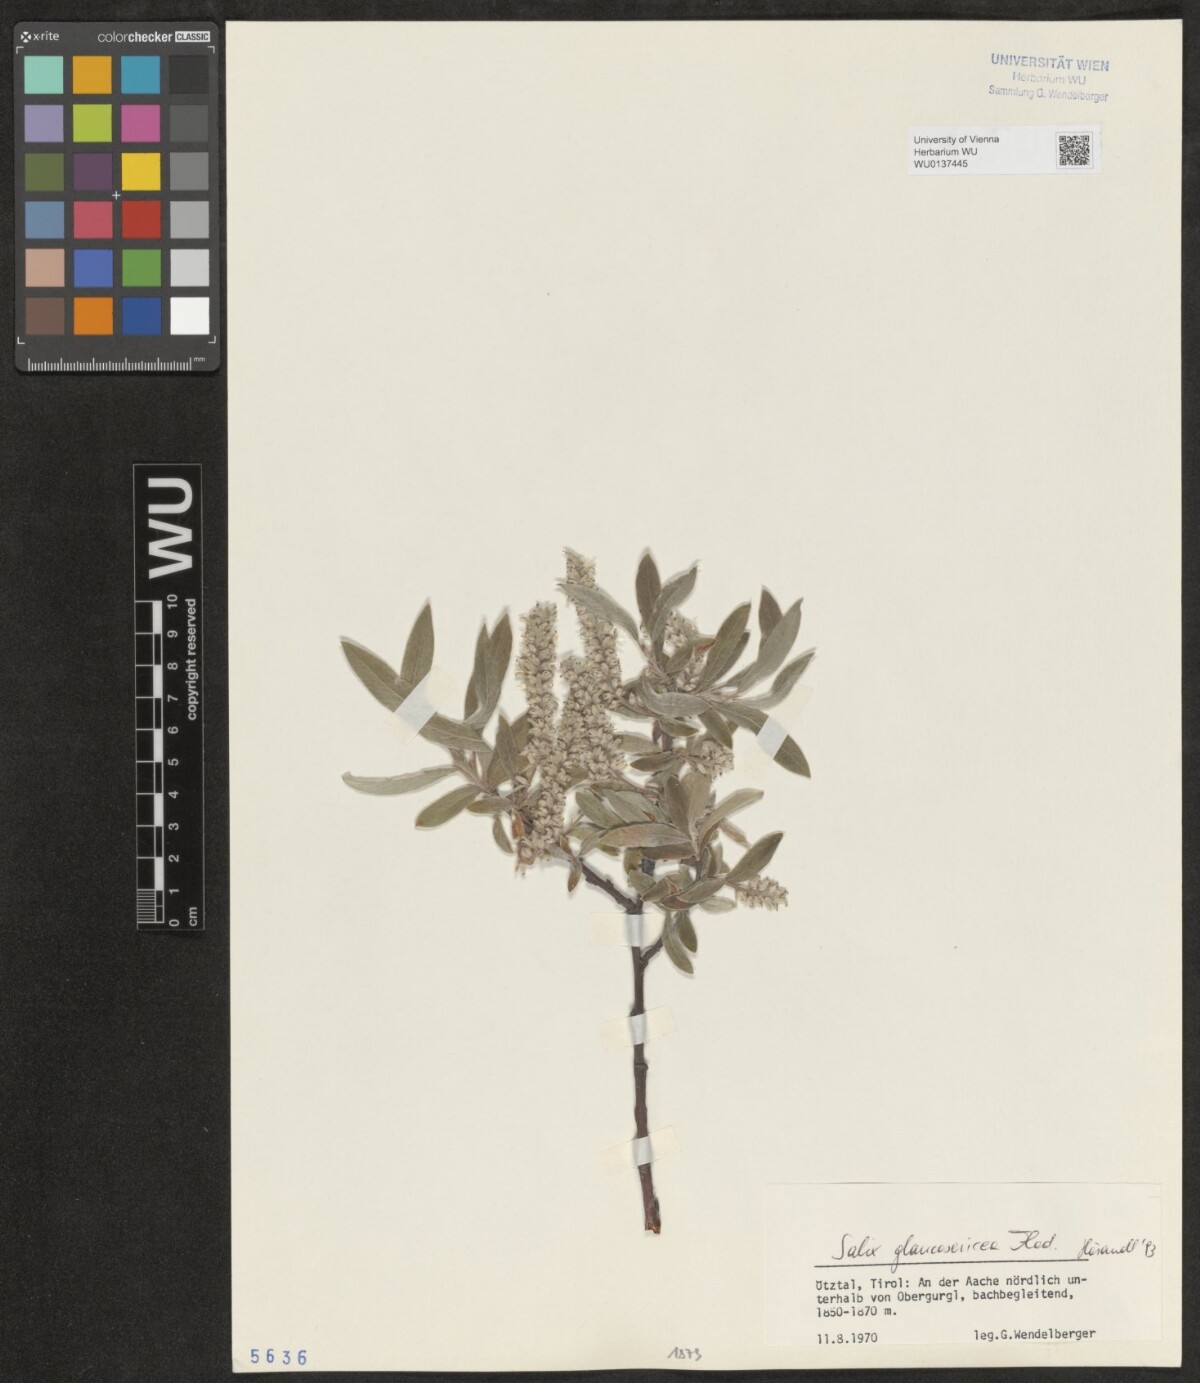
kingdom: Plantae
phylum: Tracheophyta
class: Magnoliopsida
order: Malpighiales
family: Salicaceae
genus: Salix
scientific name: Salix glaucosericea
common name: Alpine gray willow
